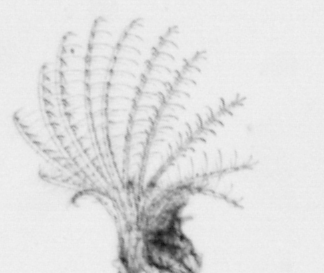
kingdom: Animalia
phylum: Arthropoda
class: Maxillopoda
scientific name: Maxillopoda
